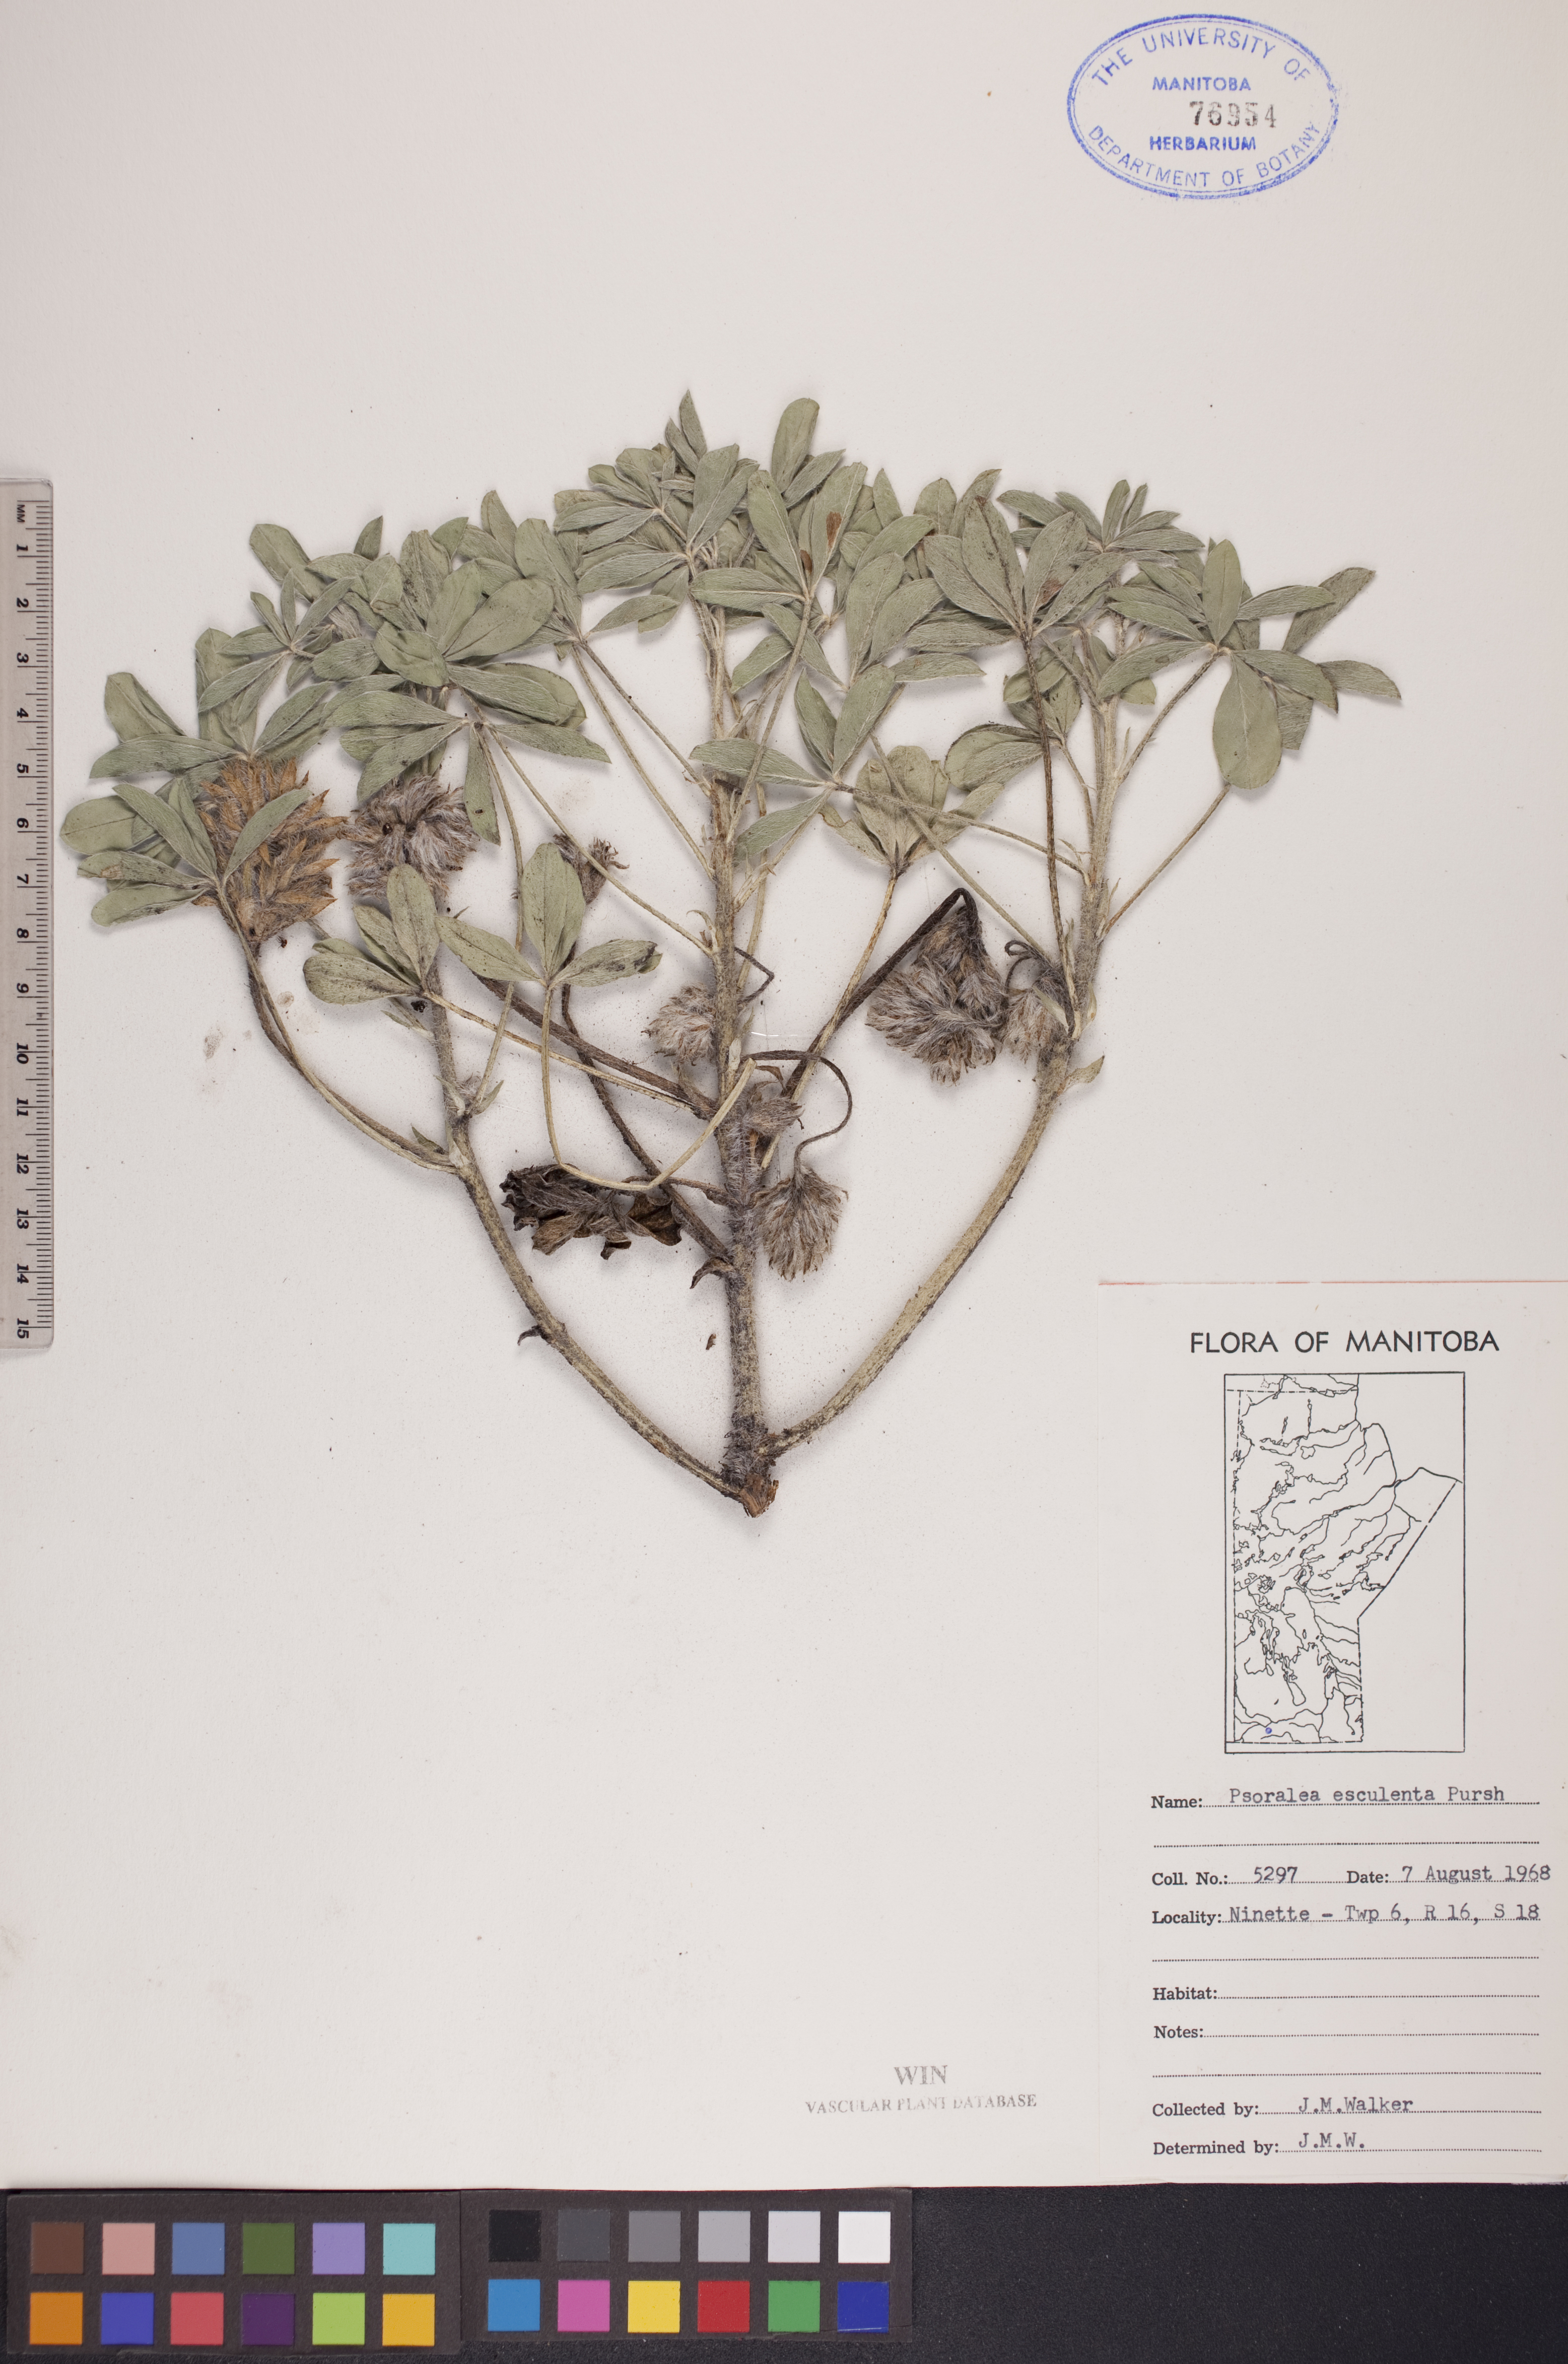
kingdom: Plantae
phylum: Tracheophyta
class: Magnoliopsida
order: Fabales
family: Fabaceae
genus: Pediomelum
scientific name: Pediomelum humile
